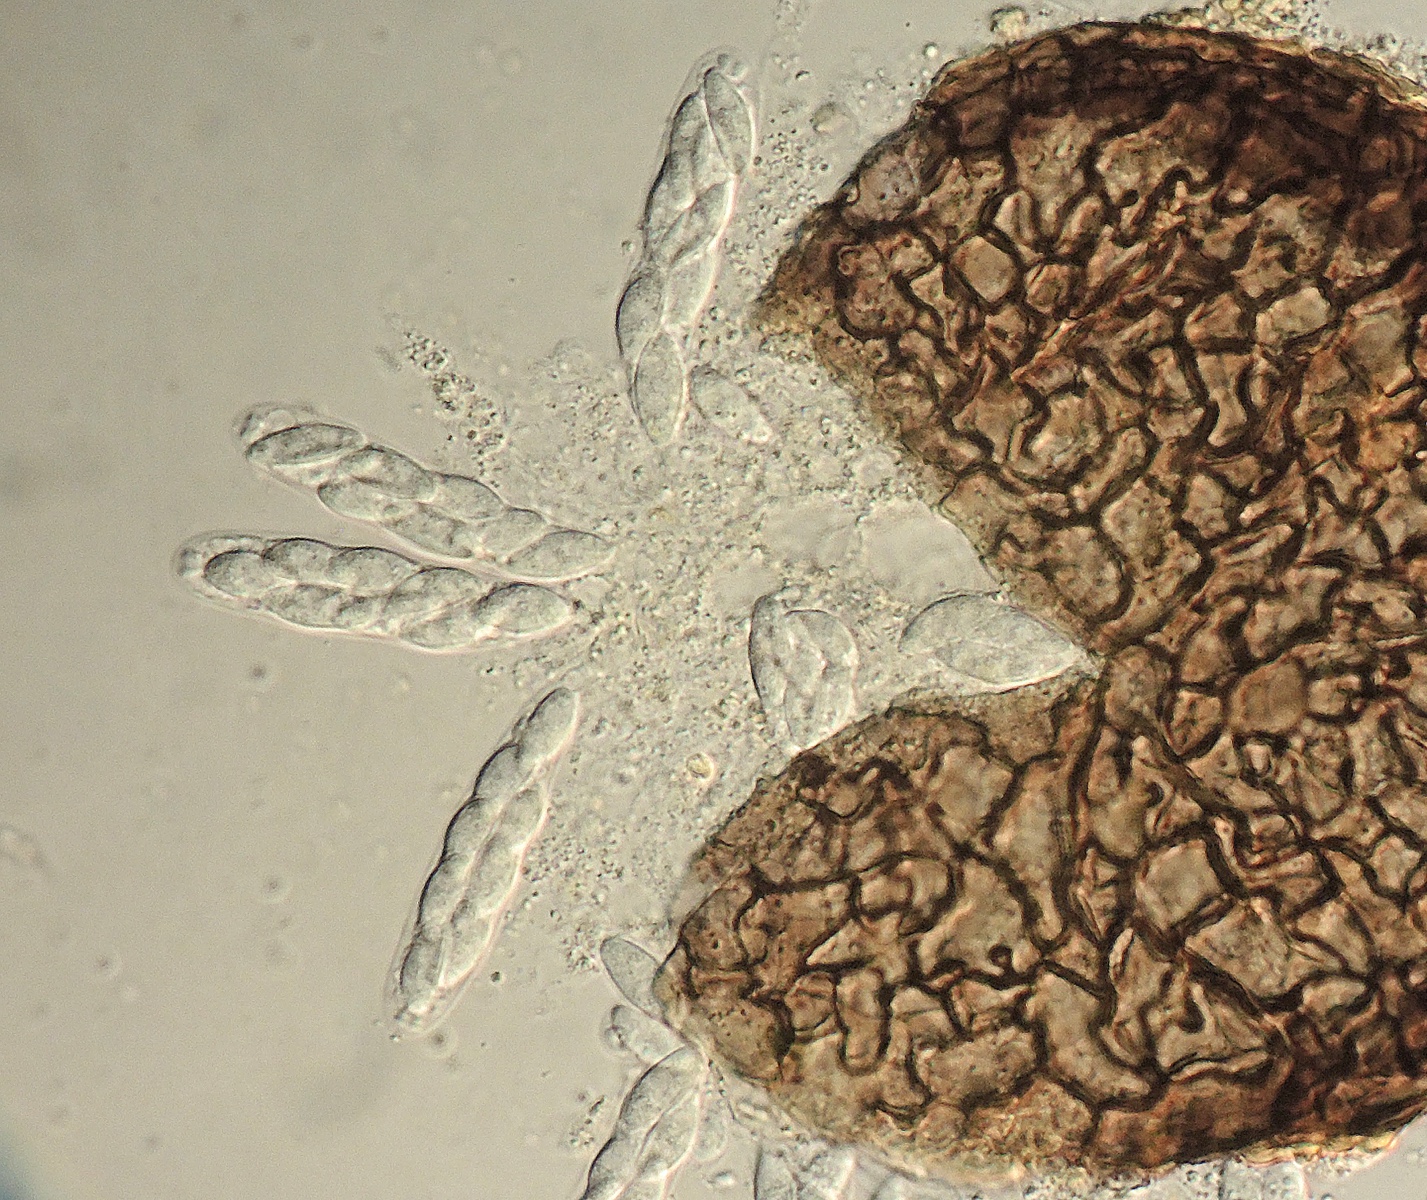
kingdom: Fungi
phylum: Ascomycota
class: Sordariomycetes
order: Diaporthales
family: Apiosporopsidaceae
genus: Apiosporopsis
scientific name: Apiosporopsis carpinea
